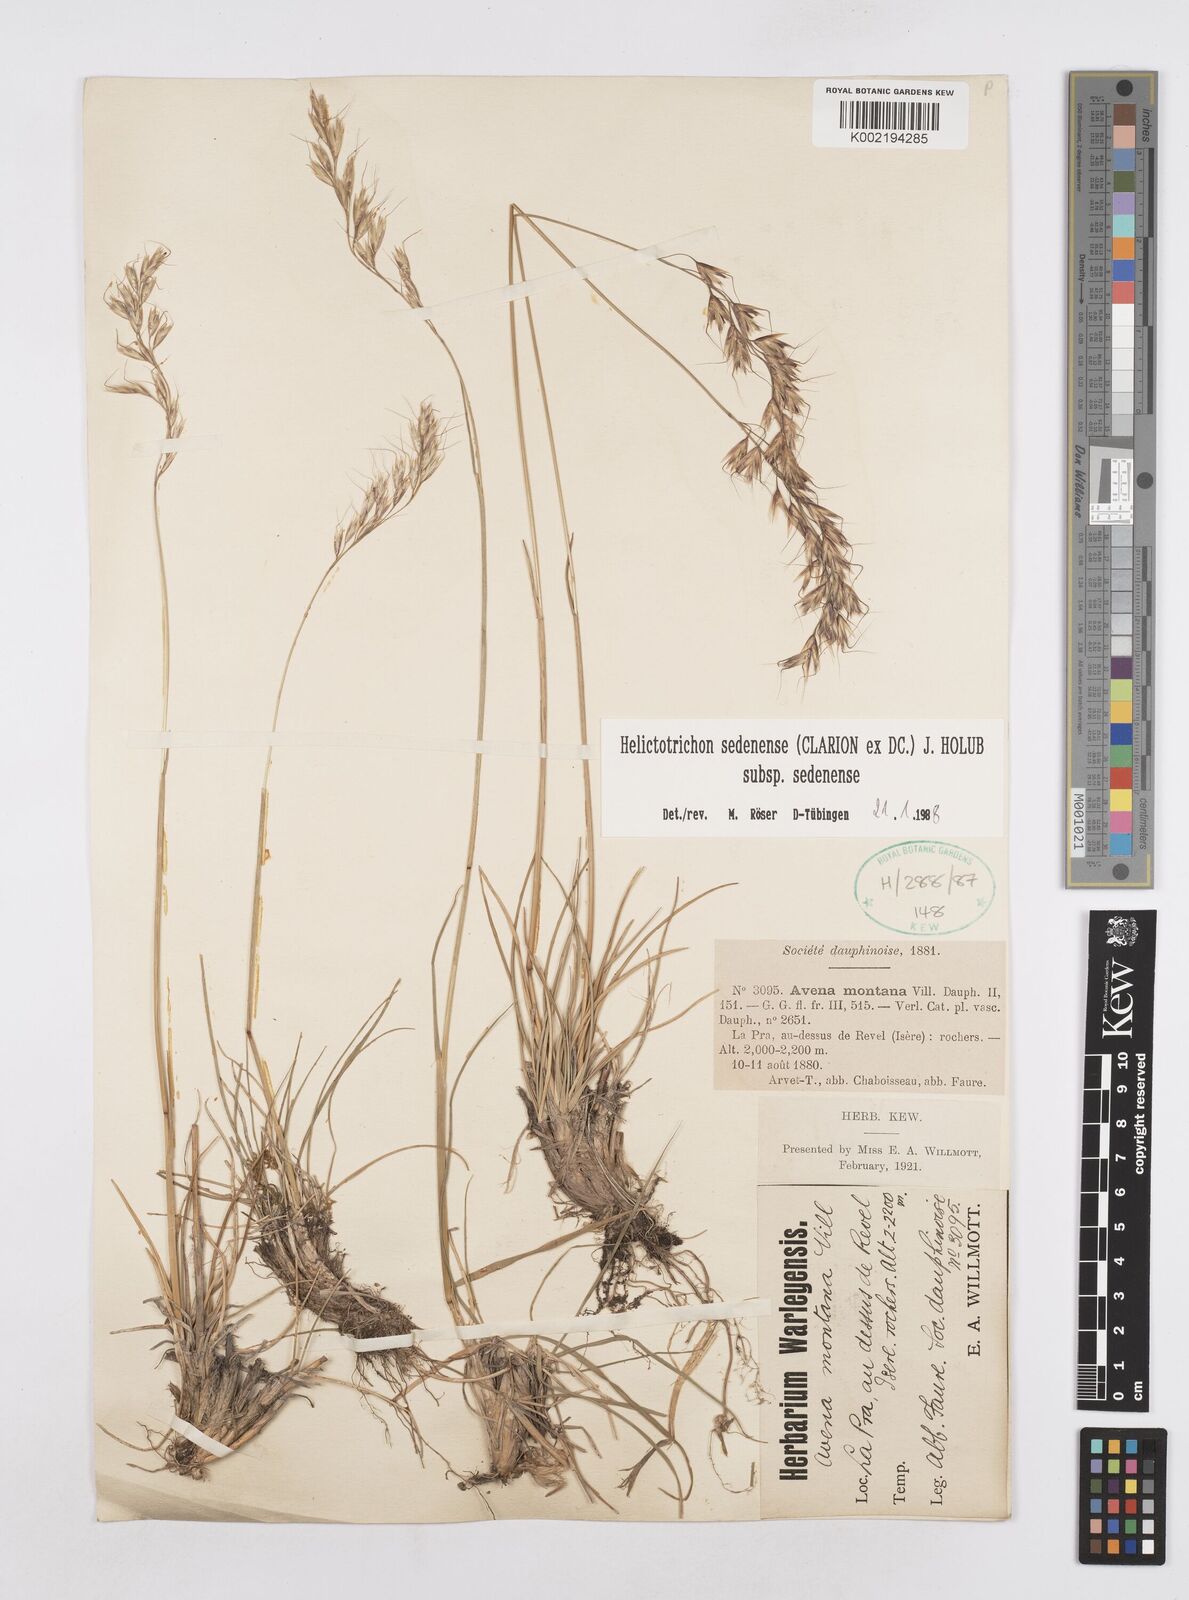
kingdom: Plantae
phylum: Tracheophyta
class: Liliopsida
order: Poales
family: Poaceae
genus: Helictotrichon
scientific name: Helictotrichon sedenense
